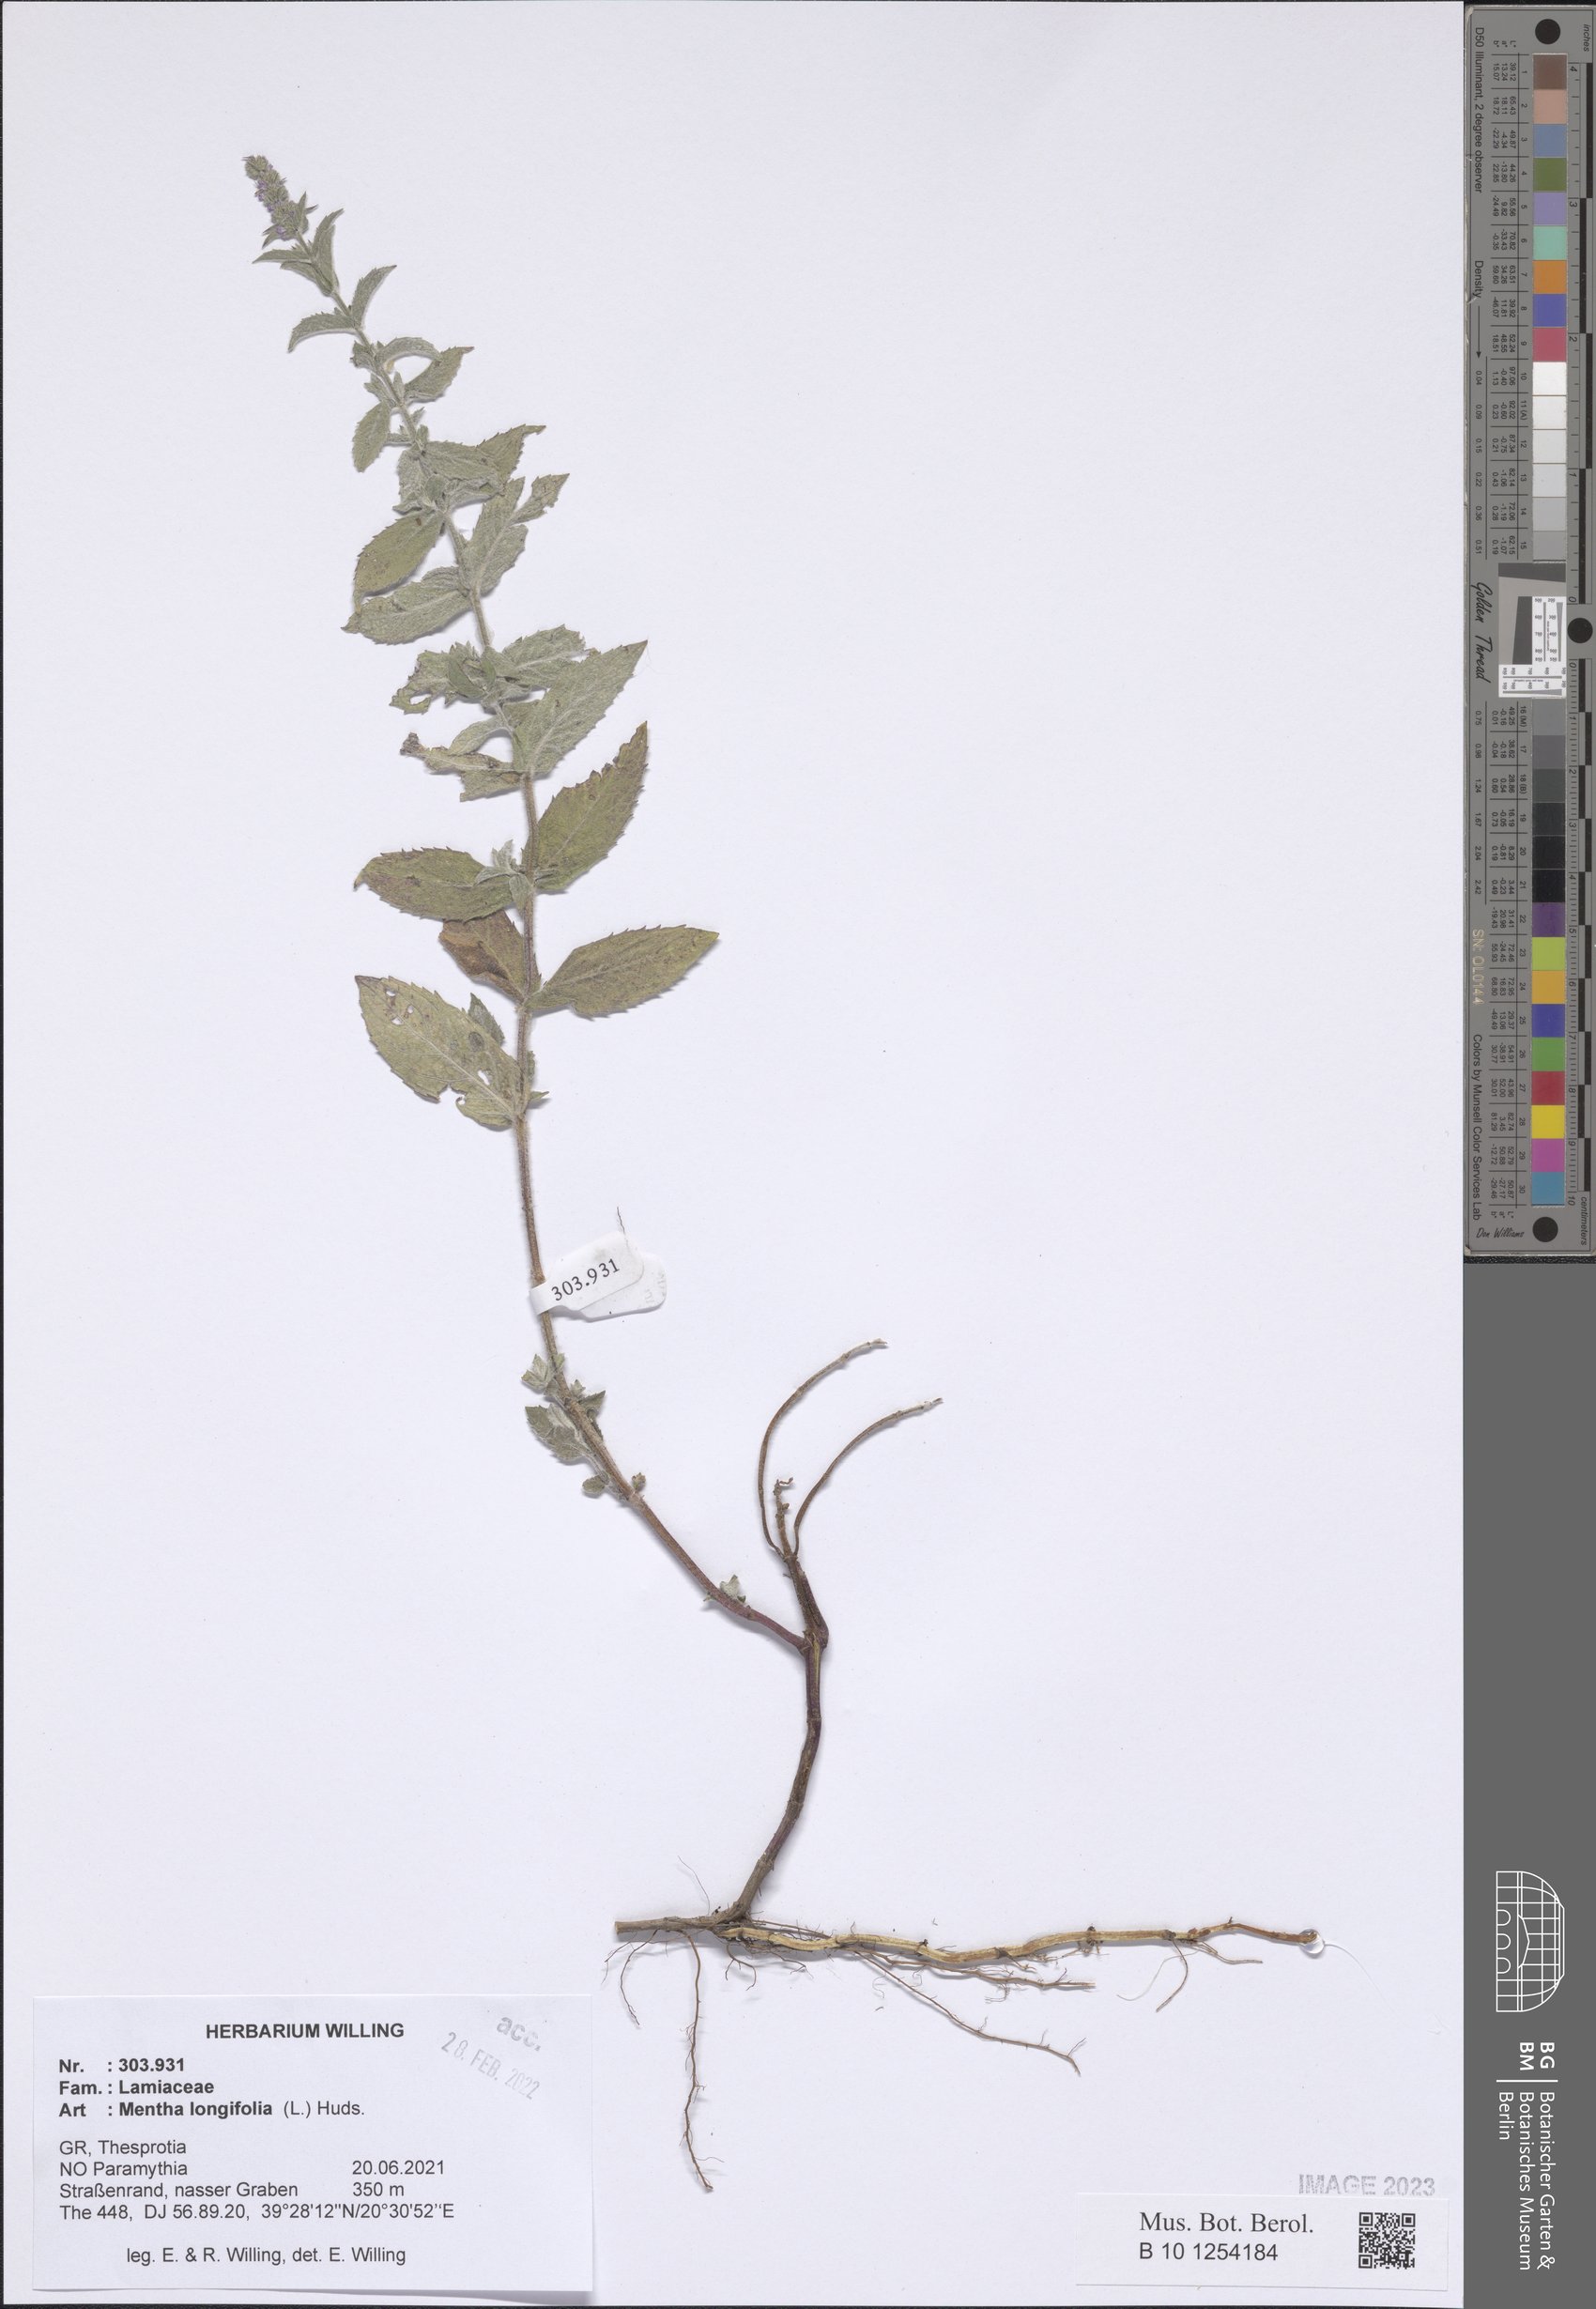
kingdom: Plantae
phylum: Tracheophyta
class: Magnoliopsida
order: Lamiales
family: Lamiaceae
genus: Mentha
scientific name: Mentha longifolia
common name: Horse mint
